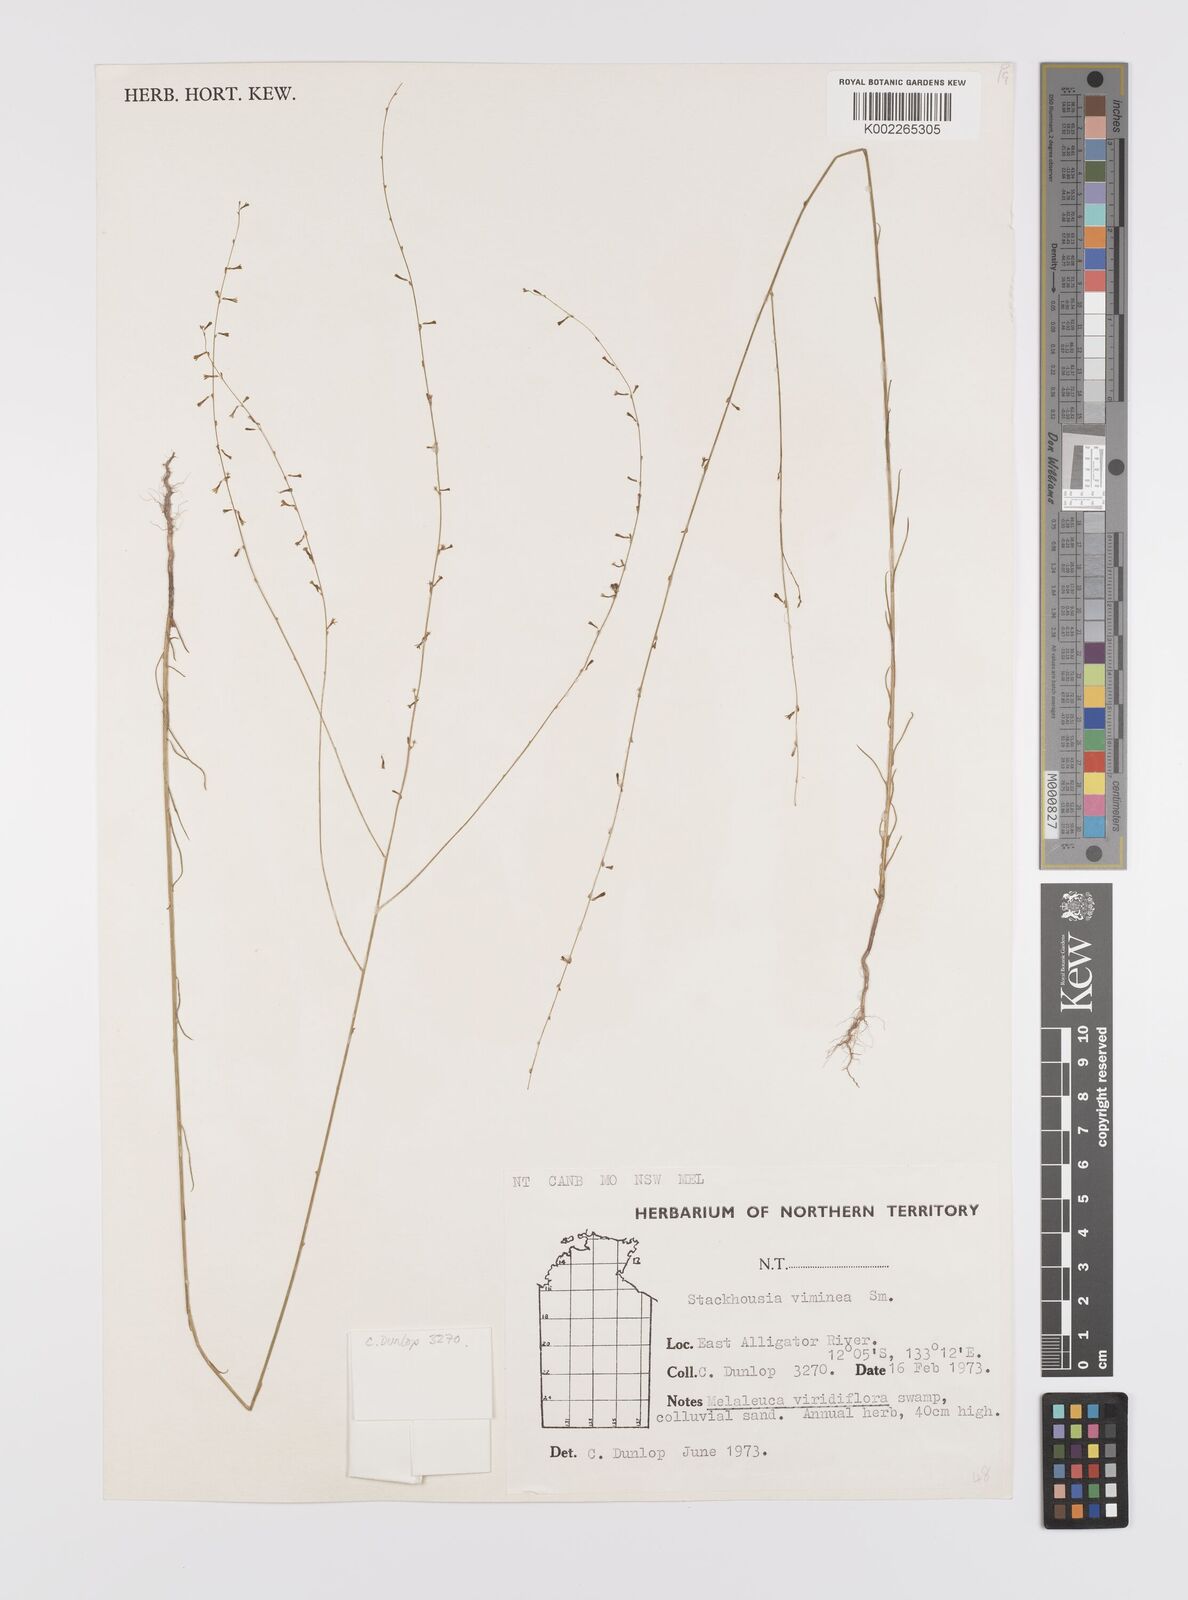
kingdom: Plantae
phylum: Tracheophyta
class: Magnoliopsida
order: Celastrales
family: Celastraceae
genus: Stackhousia
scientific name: Stackhousia viminea
